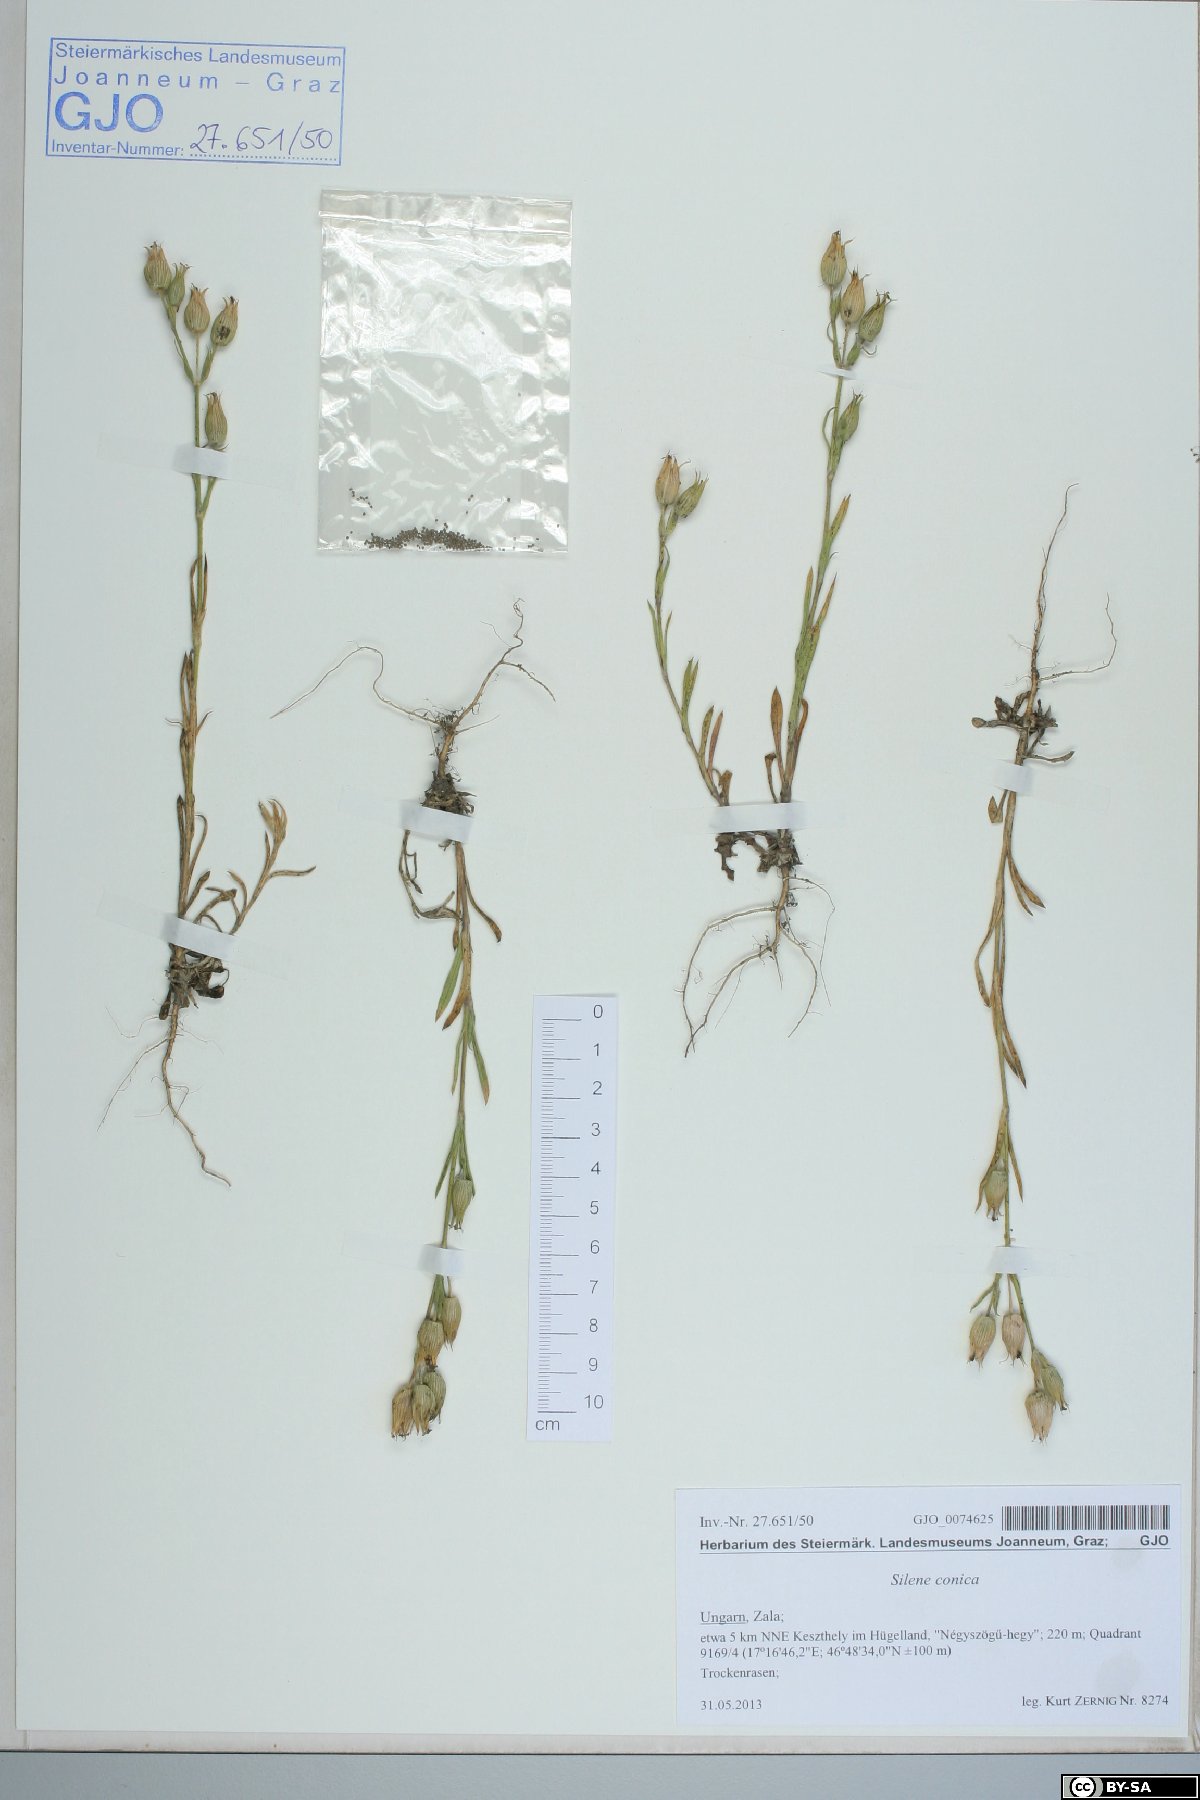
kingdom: Plantae
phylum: Tracheophyta
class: Magnoliopsida
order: Caryophyllales
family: Caryophyllaceae
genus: Silene
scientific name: Silene conica
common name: Sand catchfly
